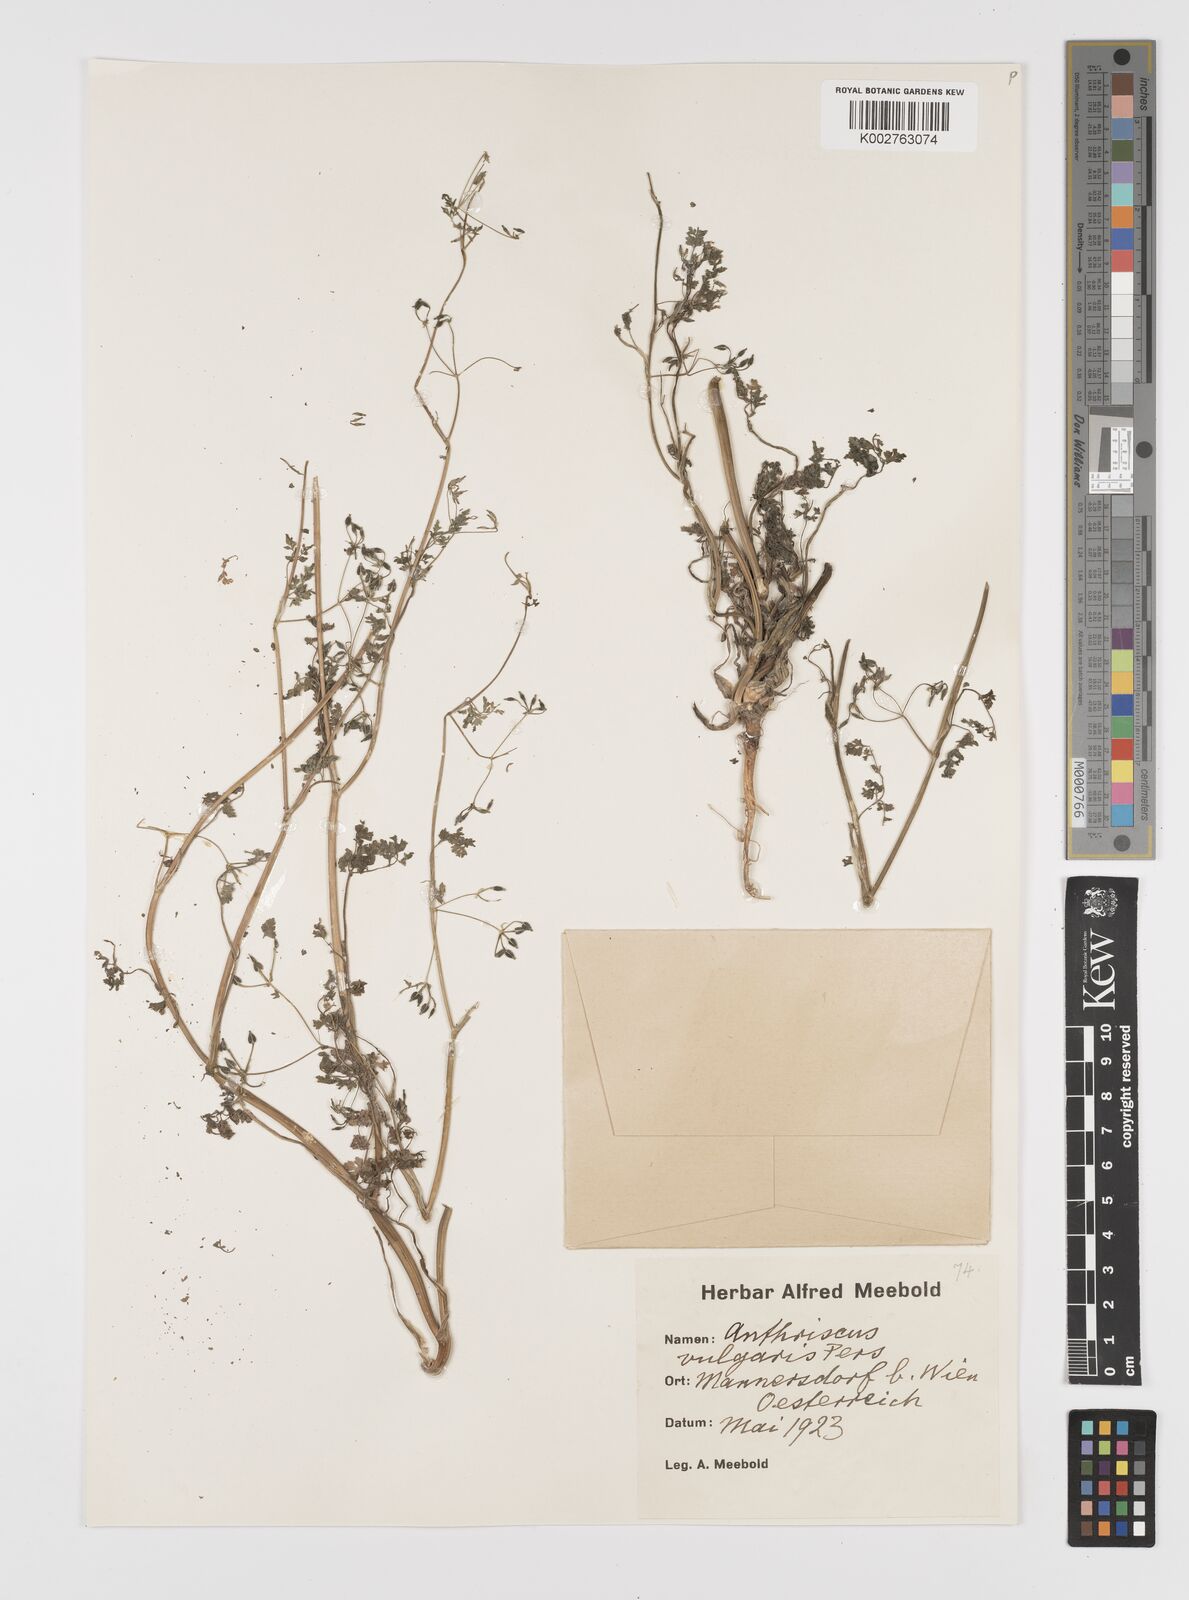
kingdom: Plantae
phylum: Tracheophyta
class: Magnoliopsida
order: Apiales
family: Apiaceae
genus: Anthriscus
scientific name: Anthriscus caucalis
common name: Bur chervil
